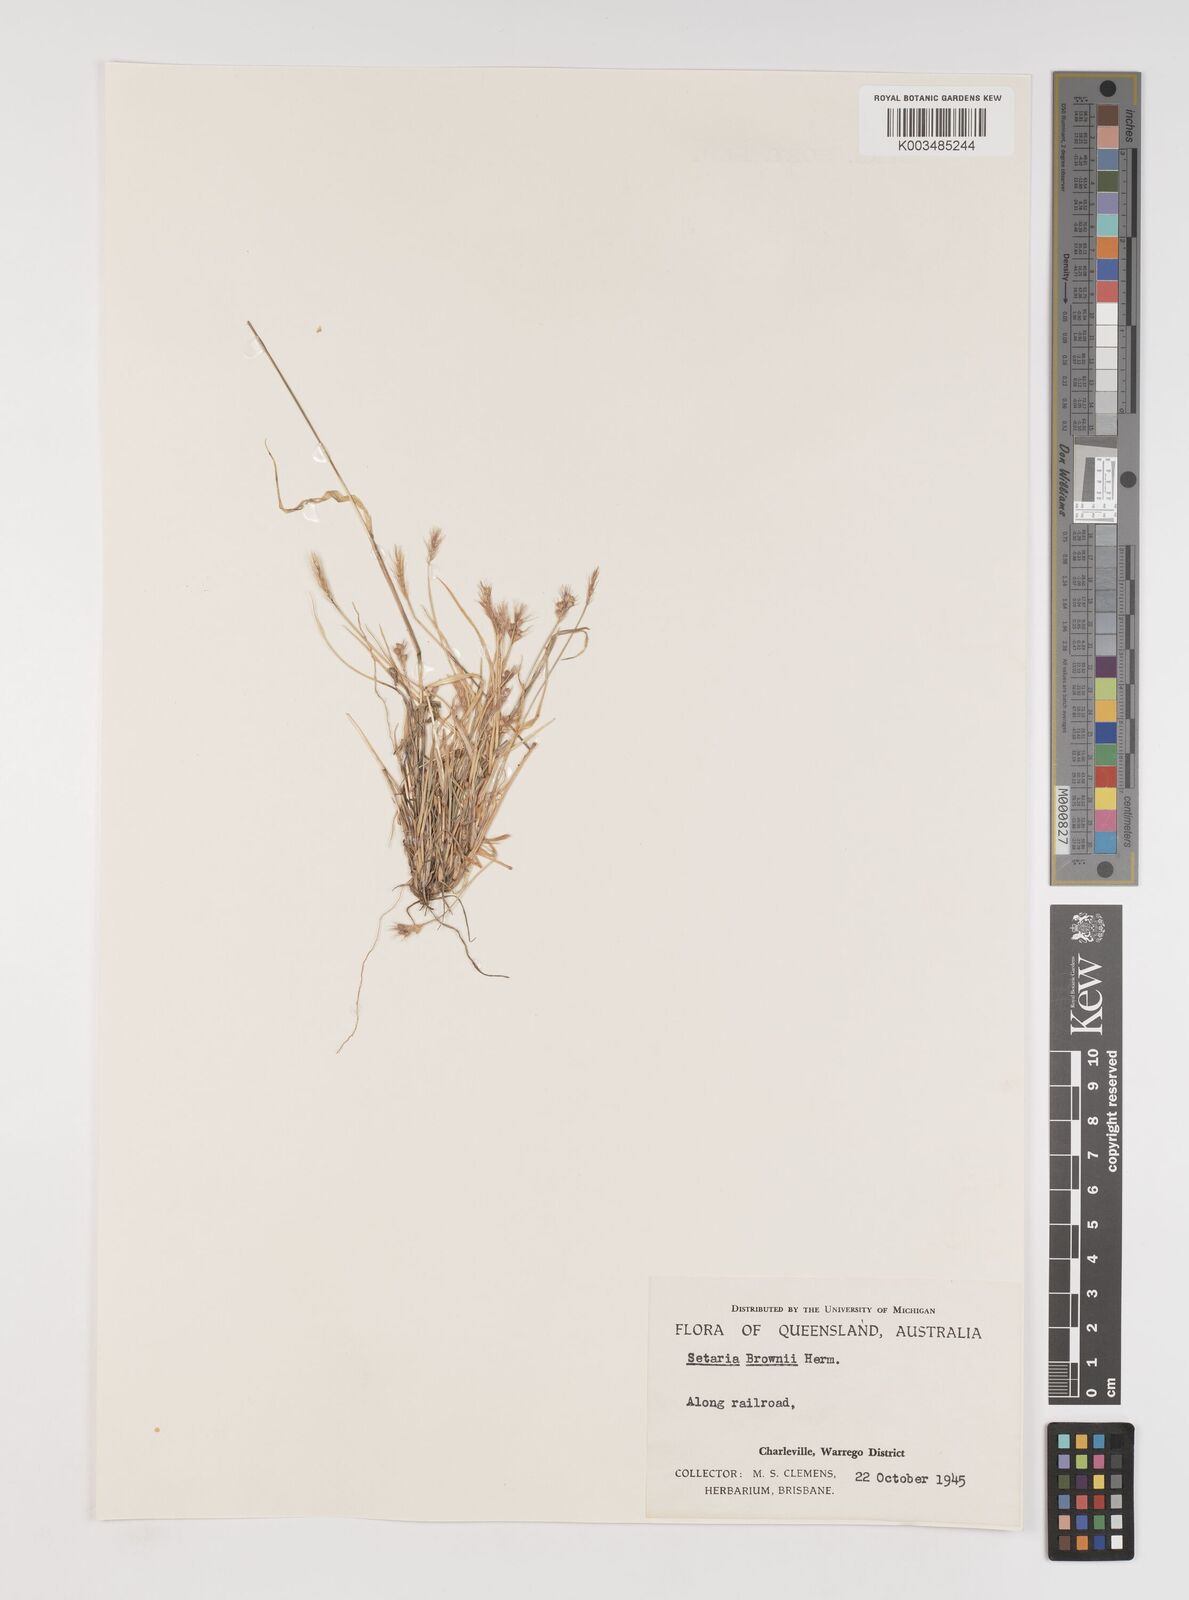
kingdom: Plantae
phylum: Tracheophyta
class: Liliopsida
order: Poales
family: Poaceae
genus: Setaria
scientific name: Setaria surgens
